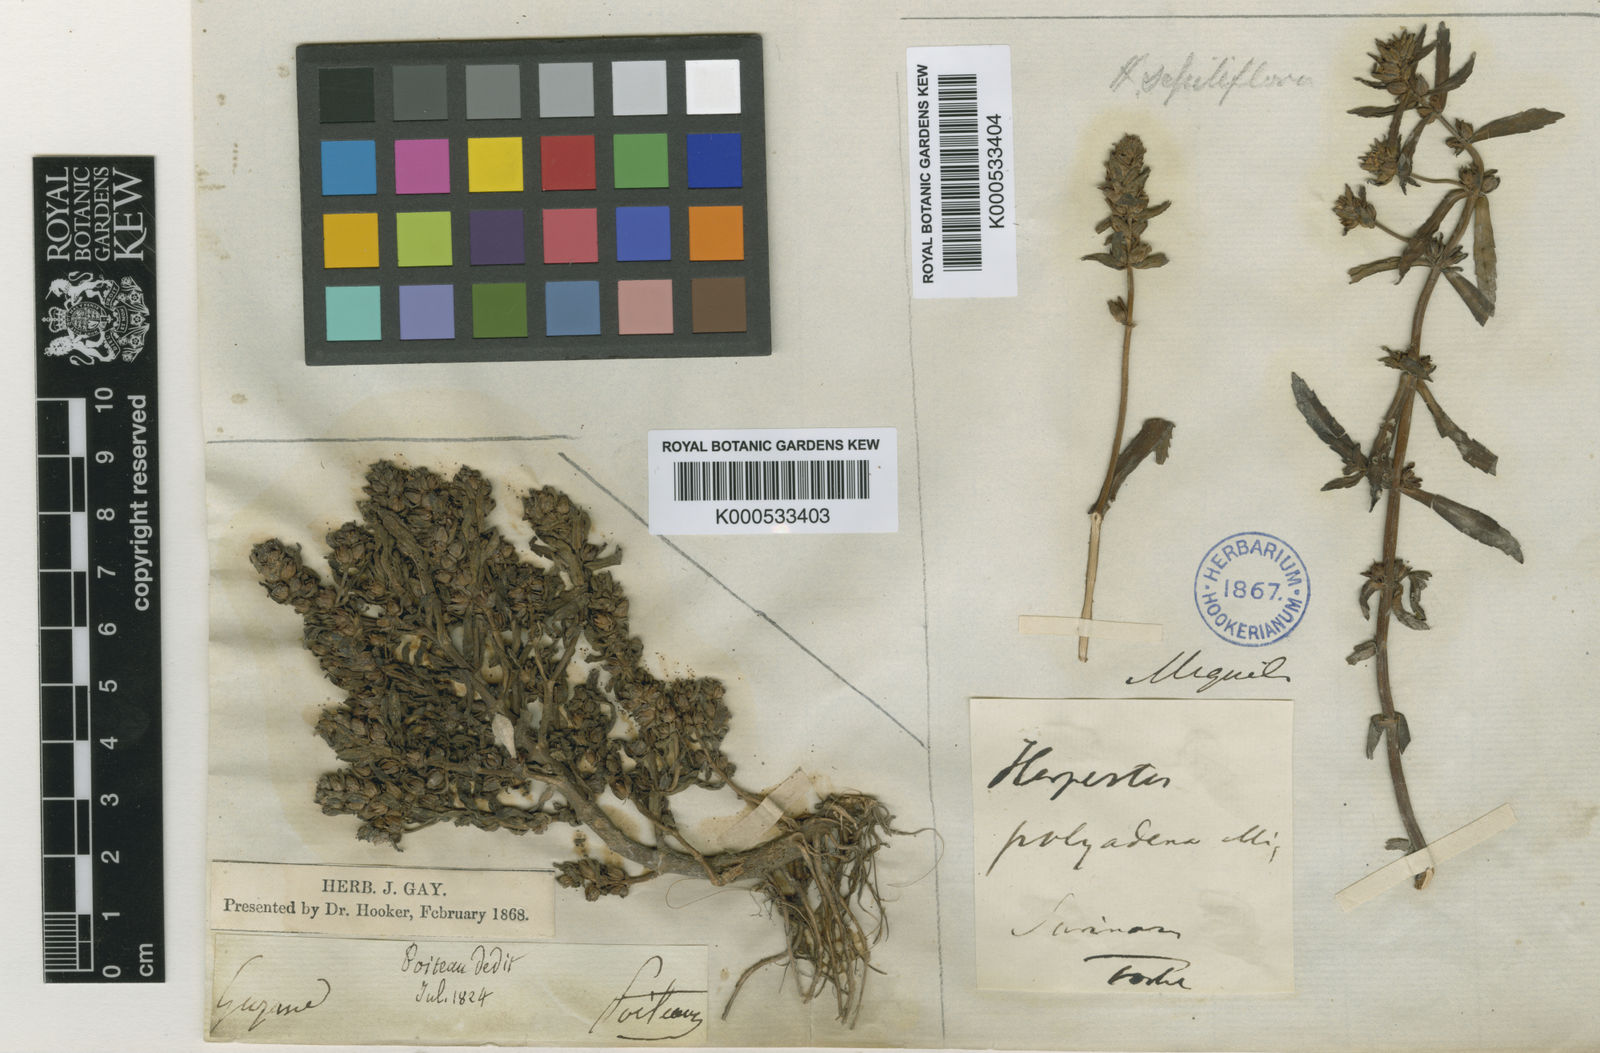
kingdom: Plantae
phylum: Tracheophyta
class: Magnoliopsida
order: Lamiales
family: Plantaginaceae
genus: Bacopa
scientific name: Bacopa sessiliflora
